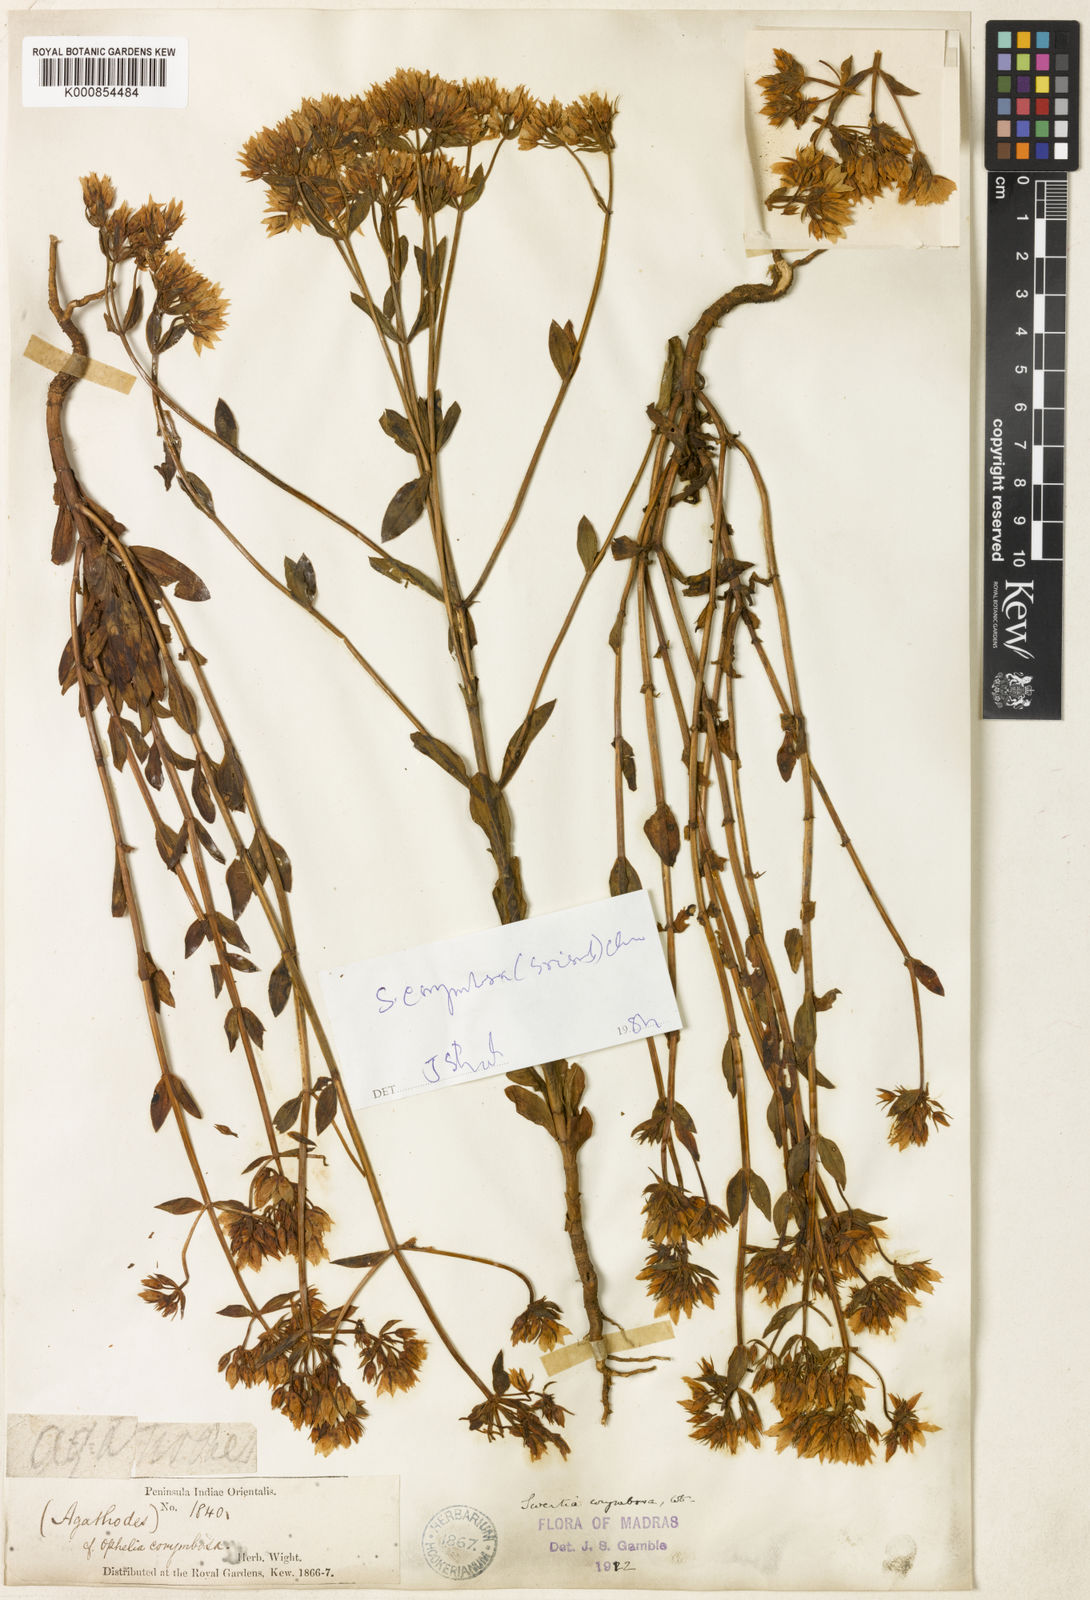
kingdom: Plantae
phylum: Tracheophyta
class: Magnoliopsida
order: Gentianales
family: Gentianaceae
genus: Swertia
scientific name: Swertia corymbosa
